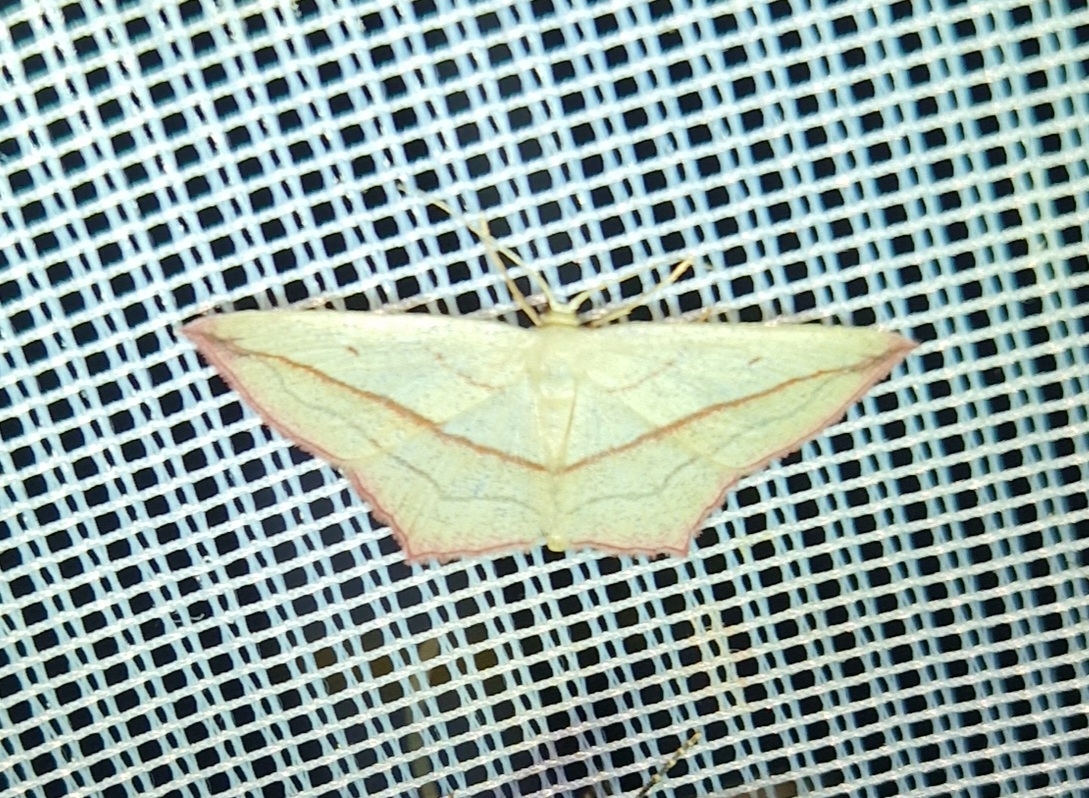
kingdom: Animalia
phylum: Arthropoda
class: Insecta
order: Lepidoptera
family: Geometridae
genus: Timandra
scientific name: Timandra comae
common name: Gul syremåler
